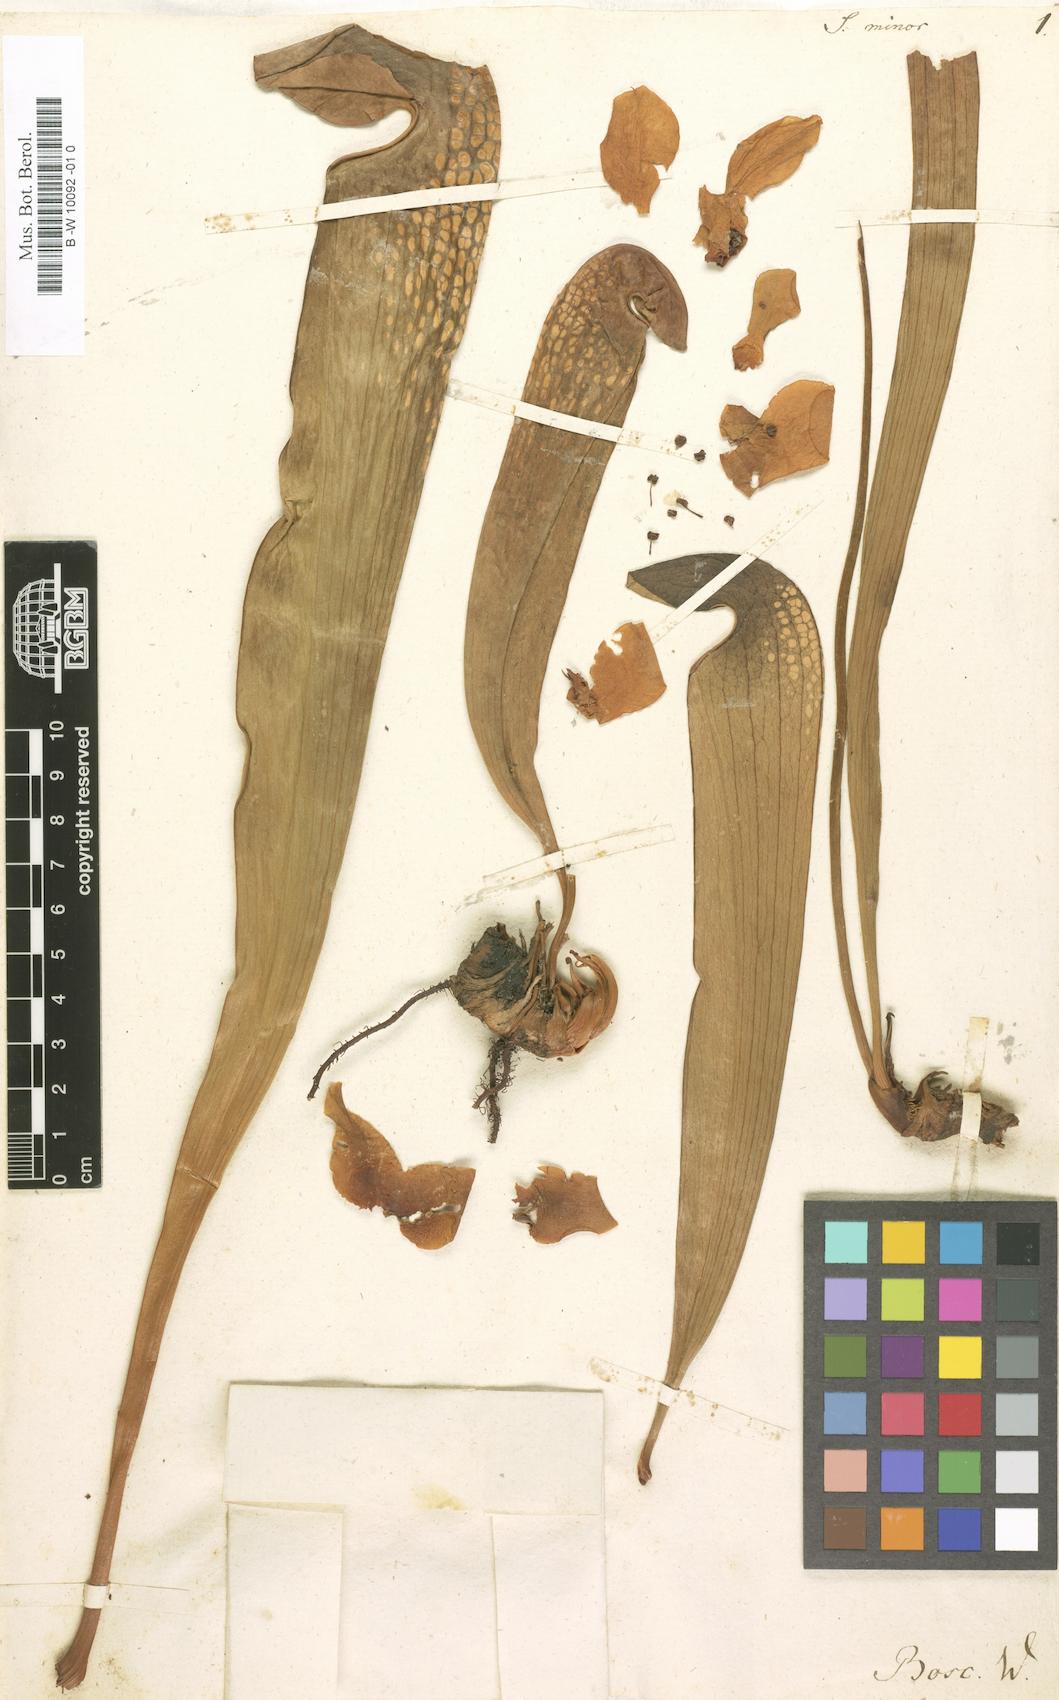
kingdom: Plantae
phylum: Tracheophyta
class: Magnoliopsida
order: Ericales
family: Sarraceniaceae
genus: Sarracenia
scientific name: Sarracenia minor
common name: Rainhat-trumpet
